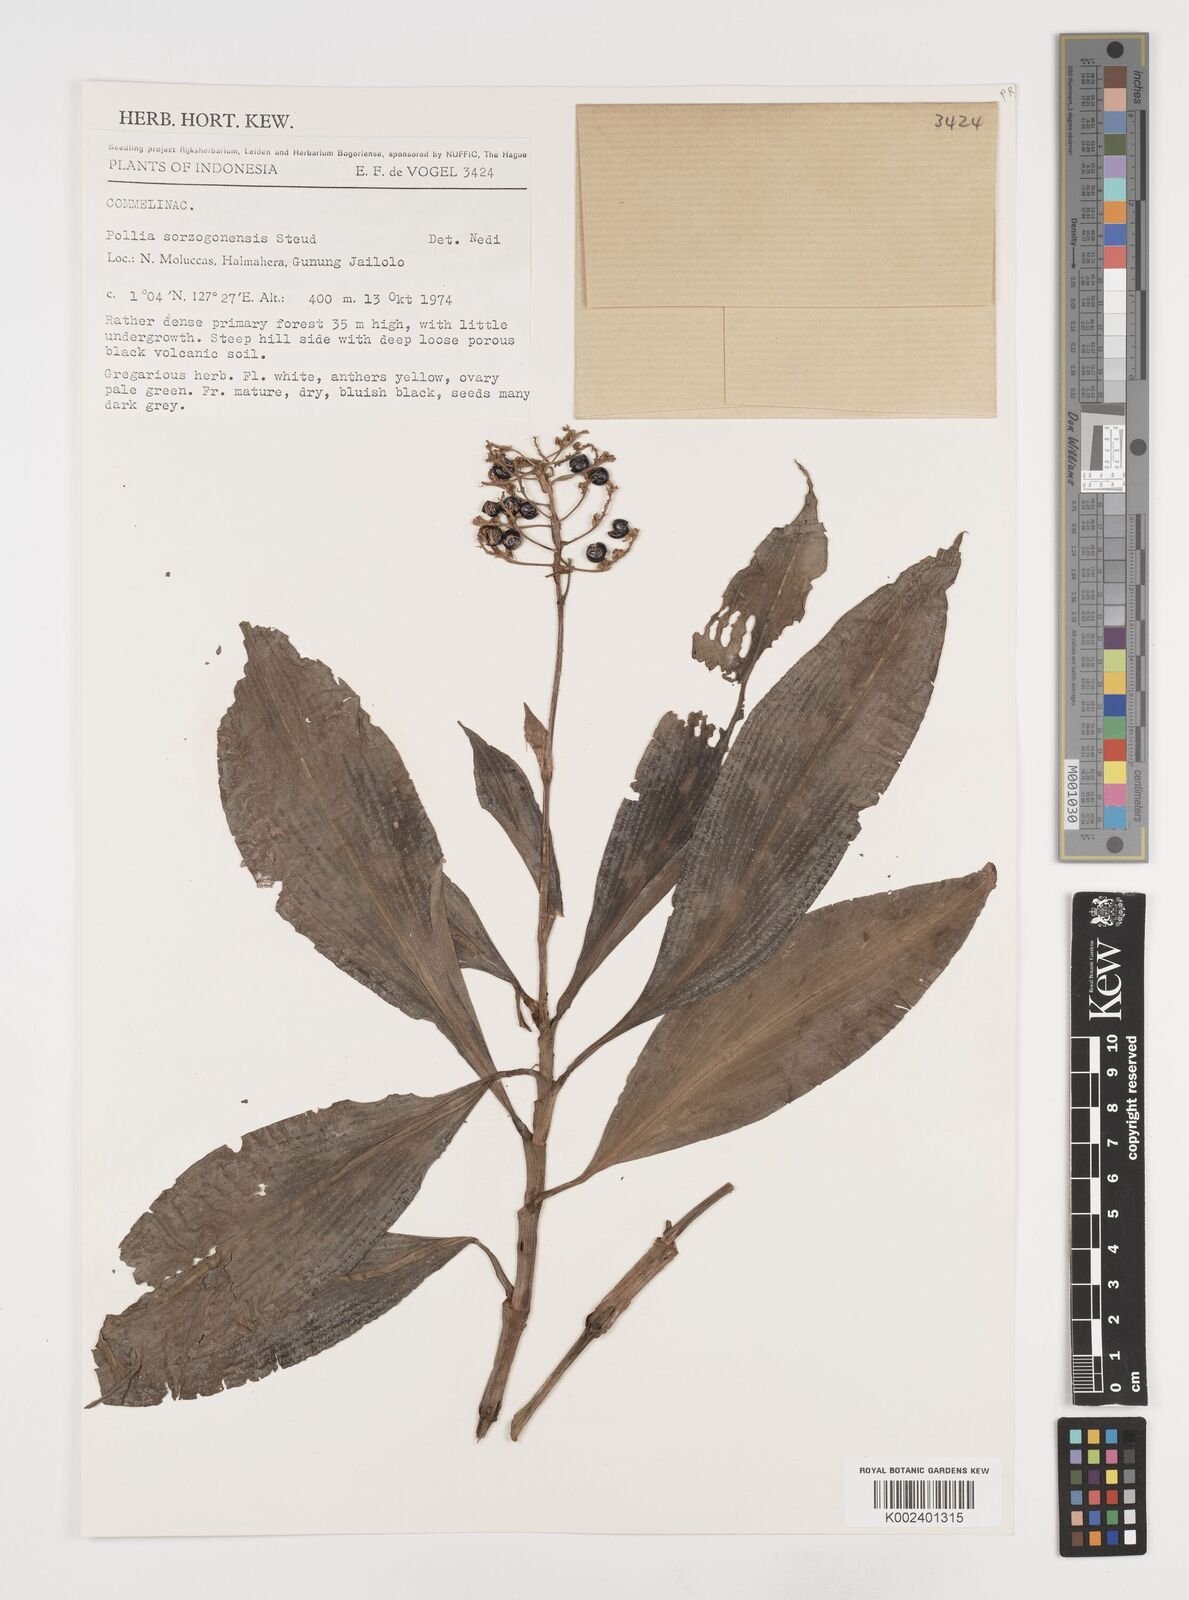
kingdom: Plantae
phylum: Tracheophyta
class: Liliopsida
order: Commelinales
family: Commelinaceae
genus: Pollia
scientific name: Pollia secundiflora
